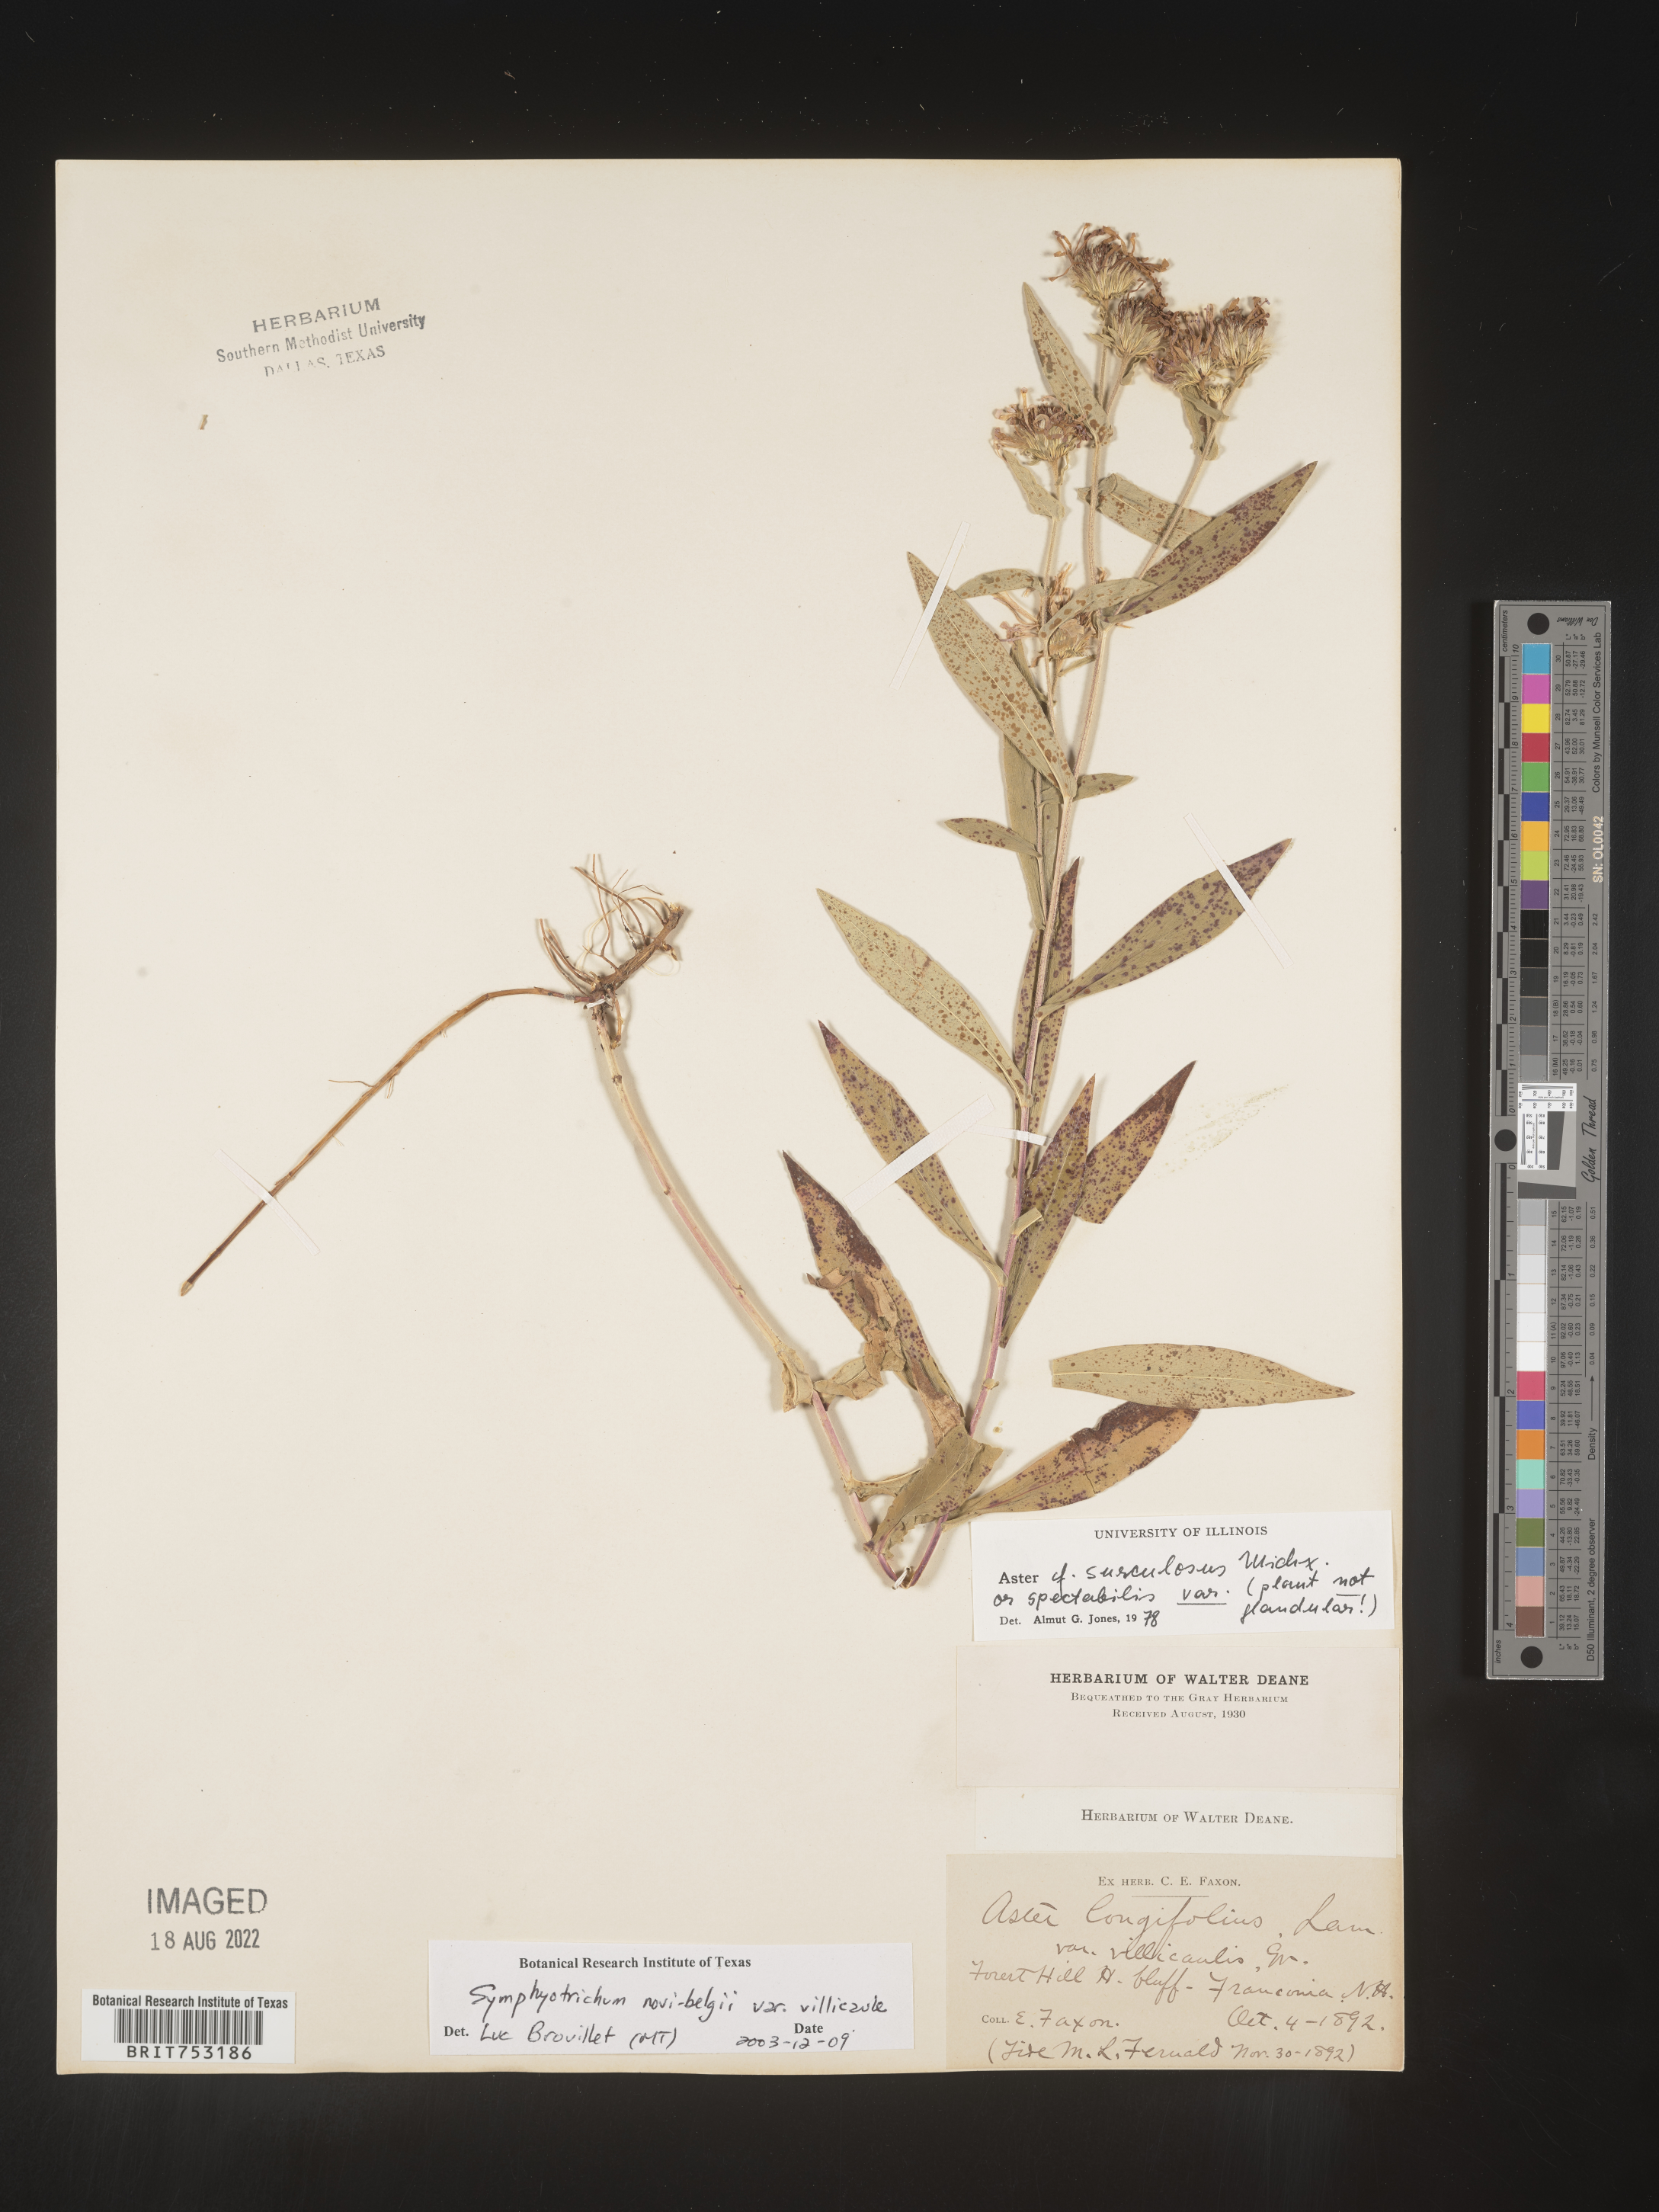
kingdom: Plantae
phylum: Tracheophyta
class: Magnoliopsida
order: Asterales
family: Asteraceae
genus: Symphyotrichum
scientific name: Symphyotrichum novi-belgii
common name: Michaelmas daisy
